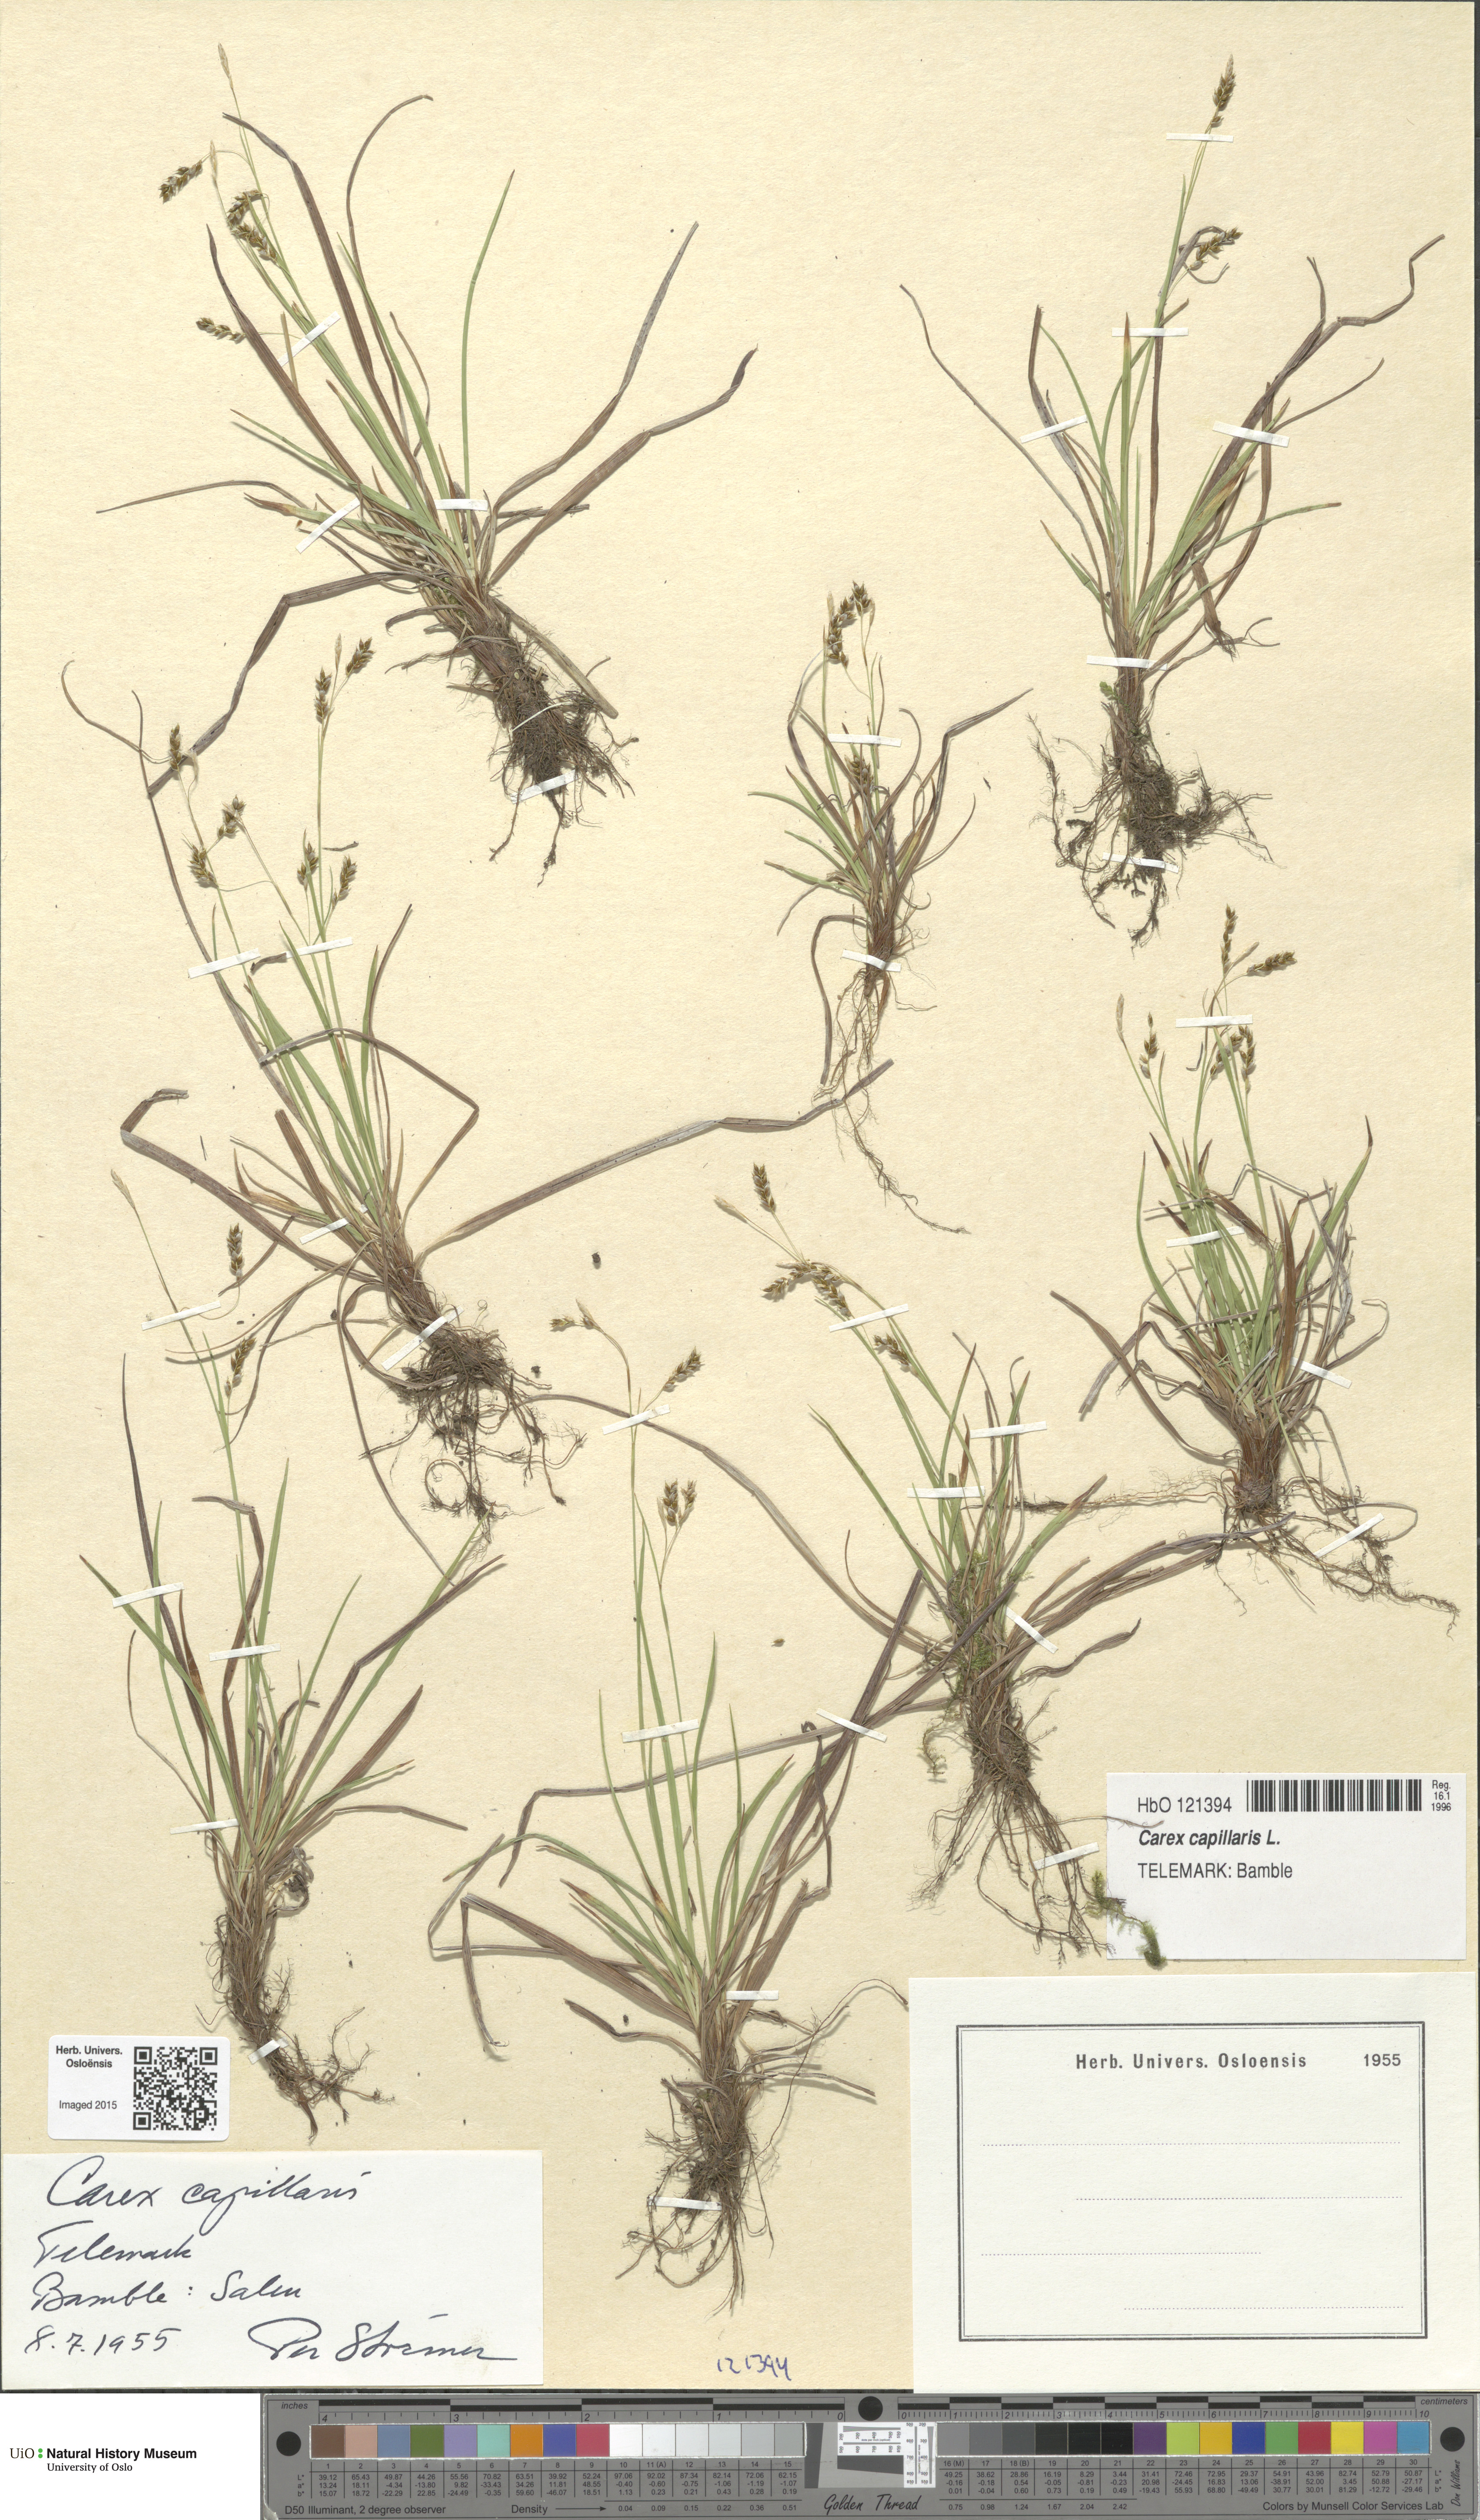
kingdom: Plantae
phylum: Tracheophyta
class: Liliopsida
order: Poales
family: Cyperaceae
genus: Carex
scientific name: Carex capillaris
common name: Hair sedge
